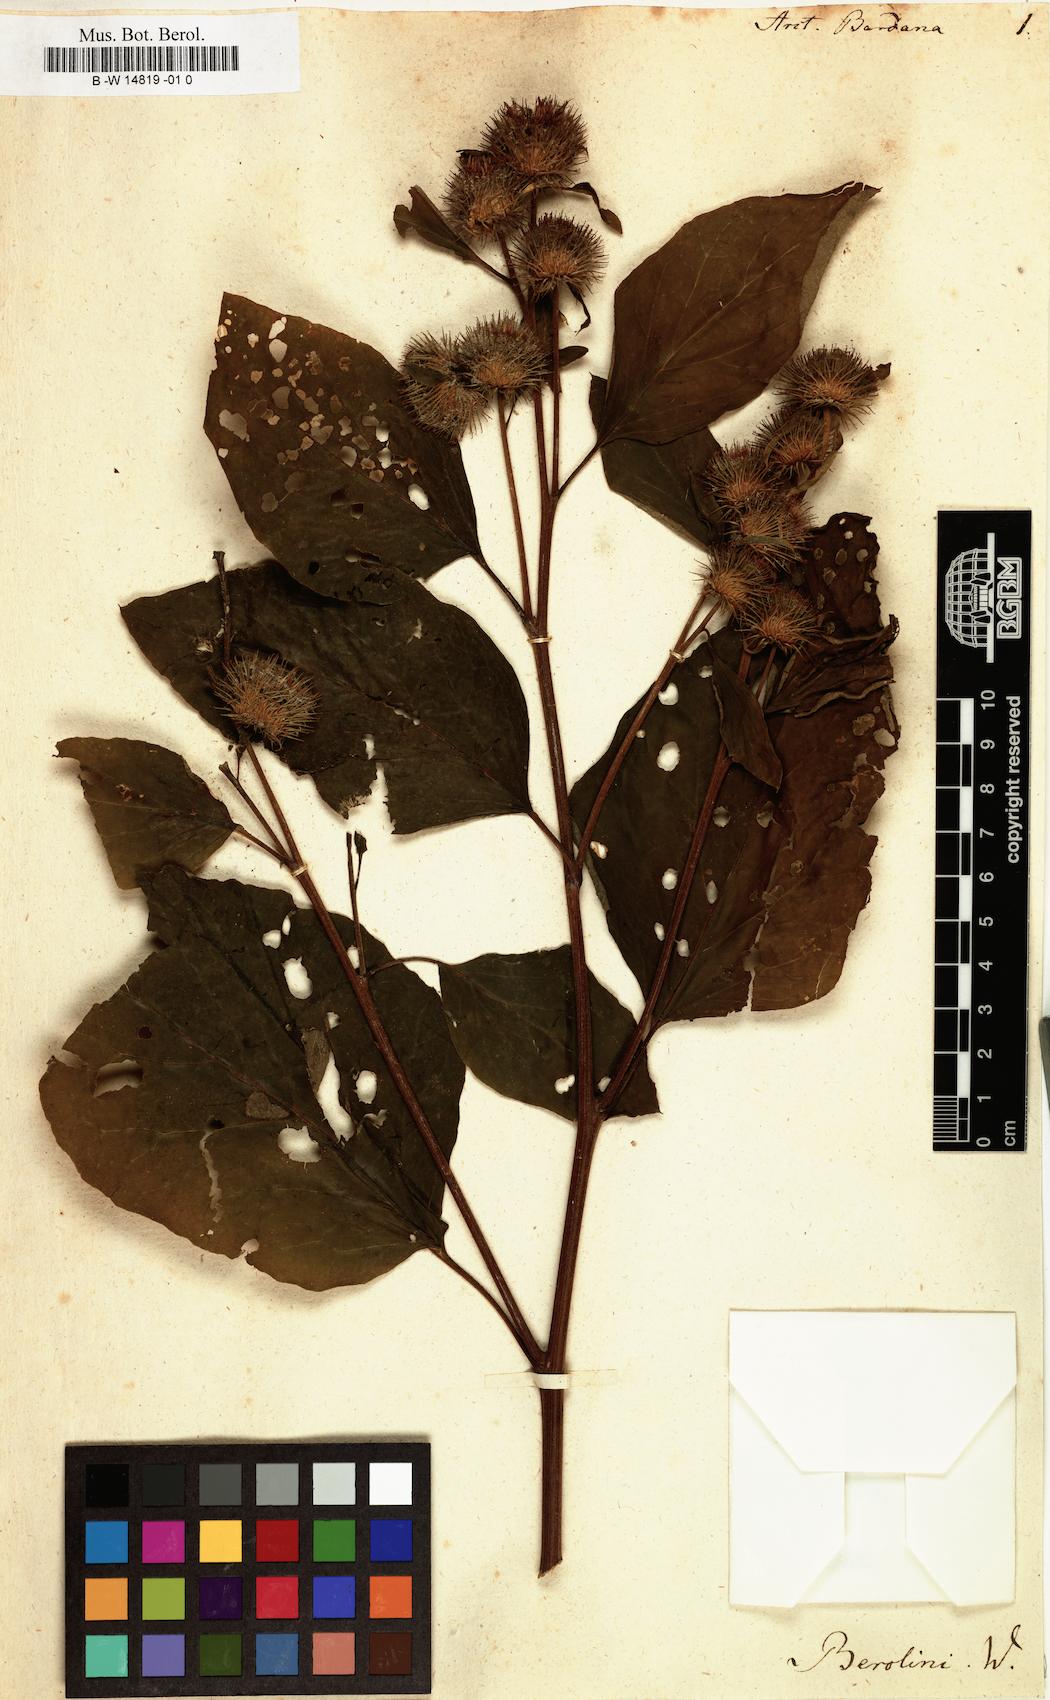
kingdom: Plantae
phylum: Tracheophyta
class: Magnoliopsida
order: Asterales
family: Asteraceae
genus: Arctium
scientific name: Arctium lappa
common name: Greater burdock
